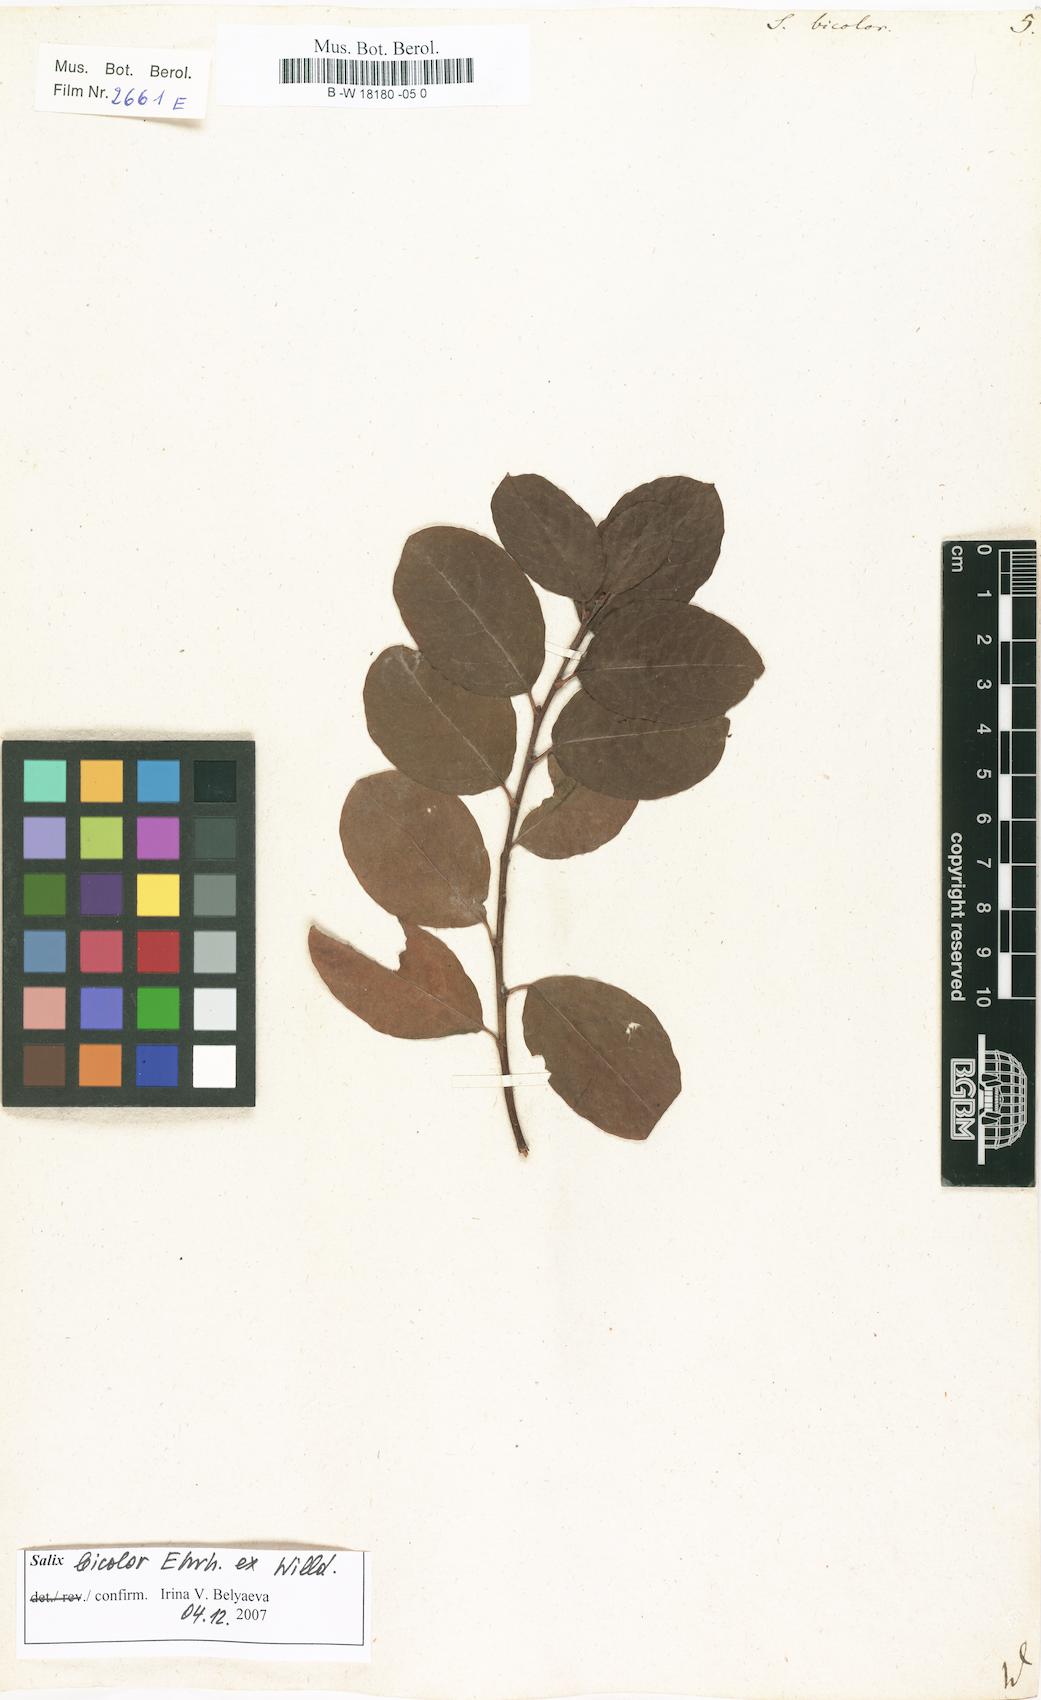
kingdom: Plantae
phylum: Tracheophyta
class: Magnoliopsida
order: Malpighiales
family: Salicaceae
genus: Salix
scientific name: Salix bicolor
